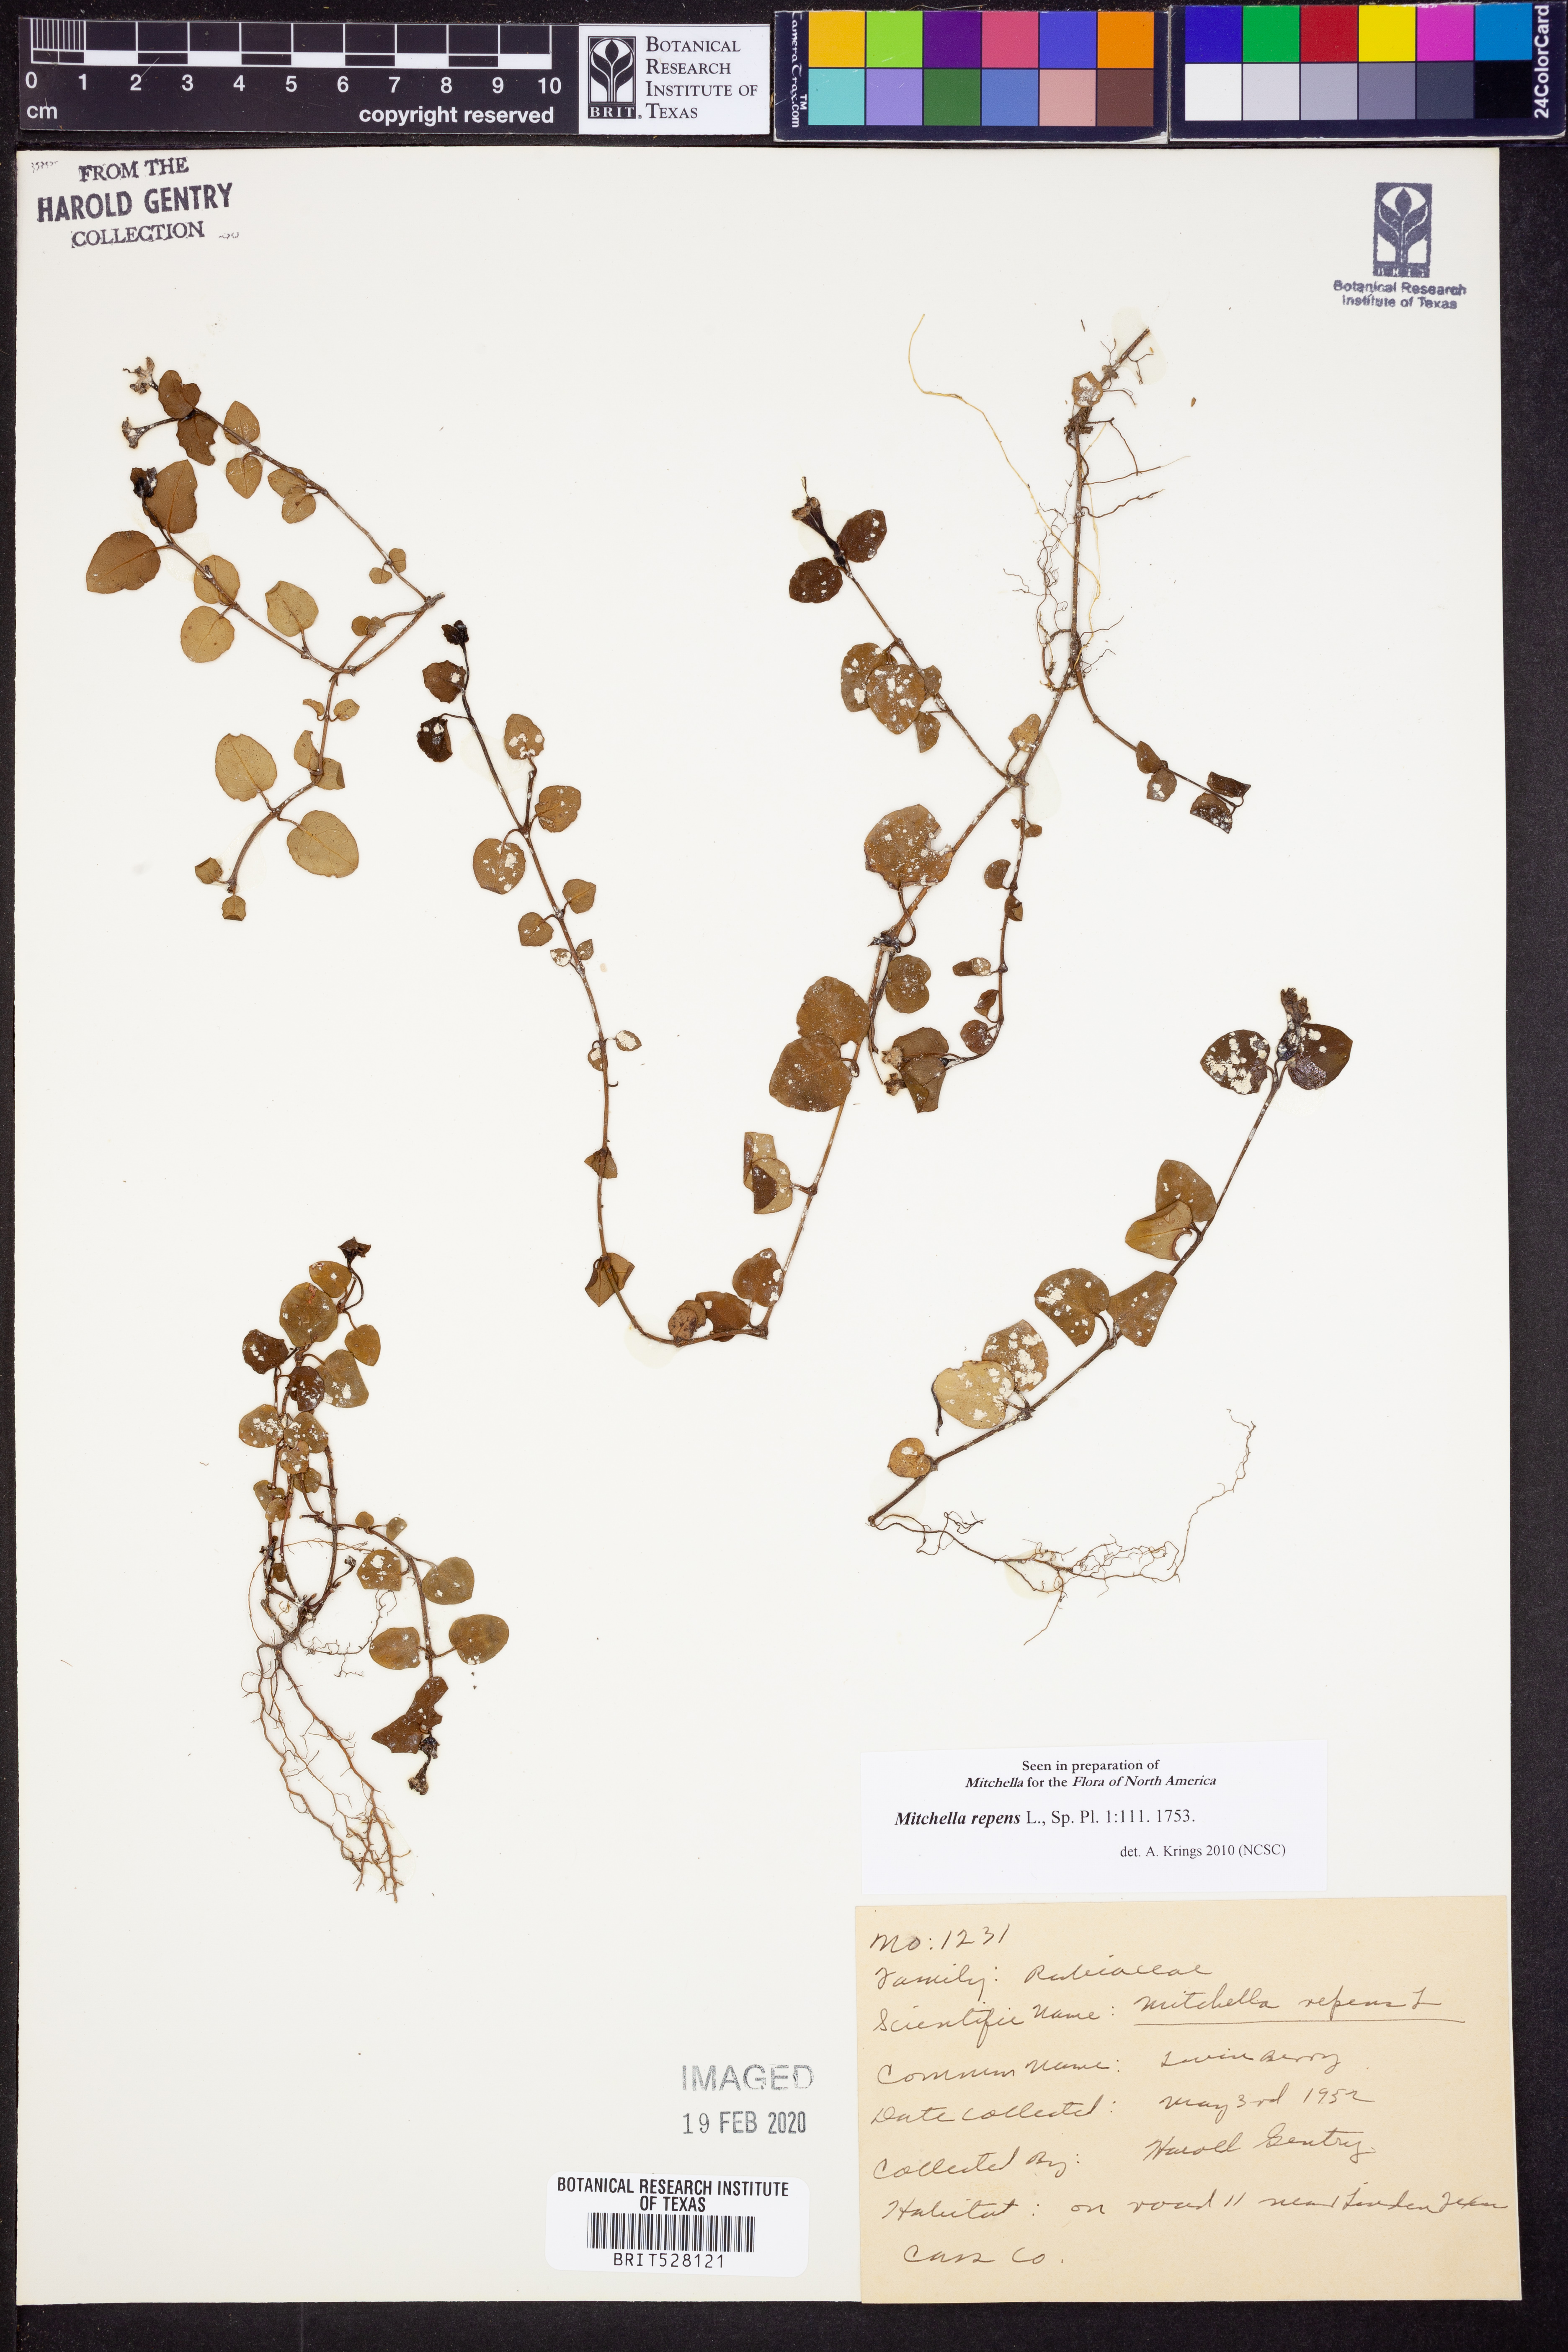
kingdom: Plantae
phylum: Tracheophyta
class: Magnoliopsida
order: Gentianales
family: Rubiaceae
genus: Mitchella
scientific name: Mitchella repens
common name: Partridge-berry
